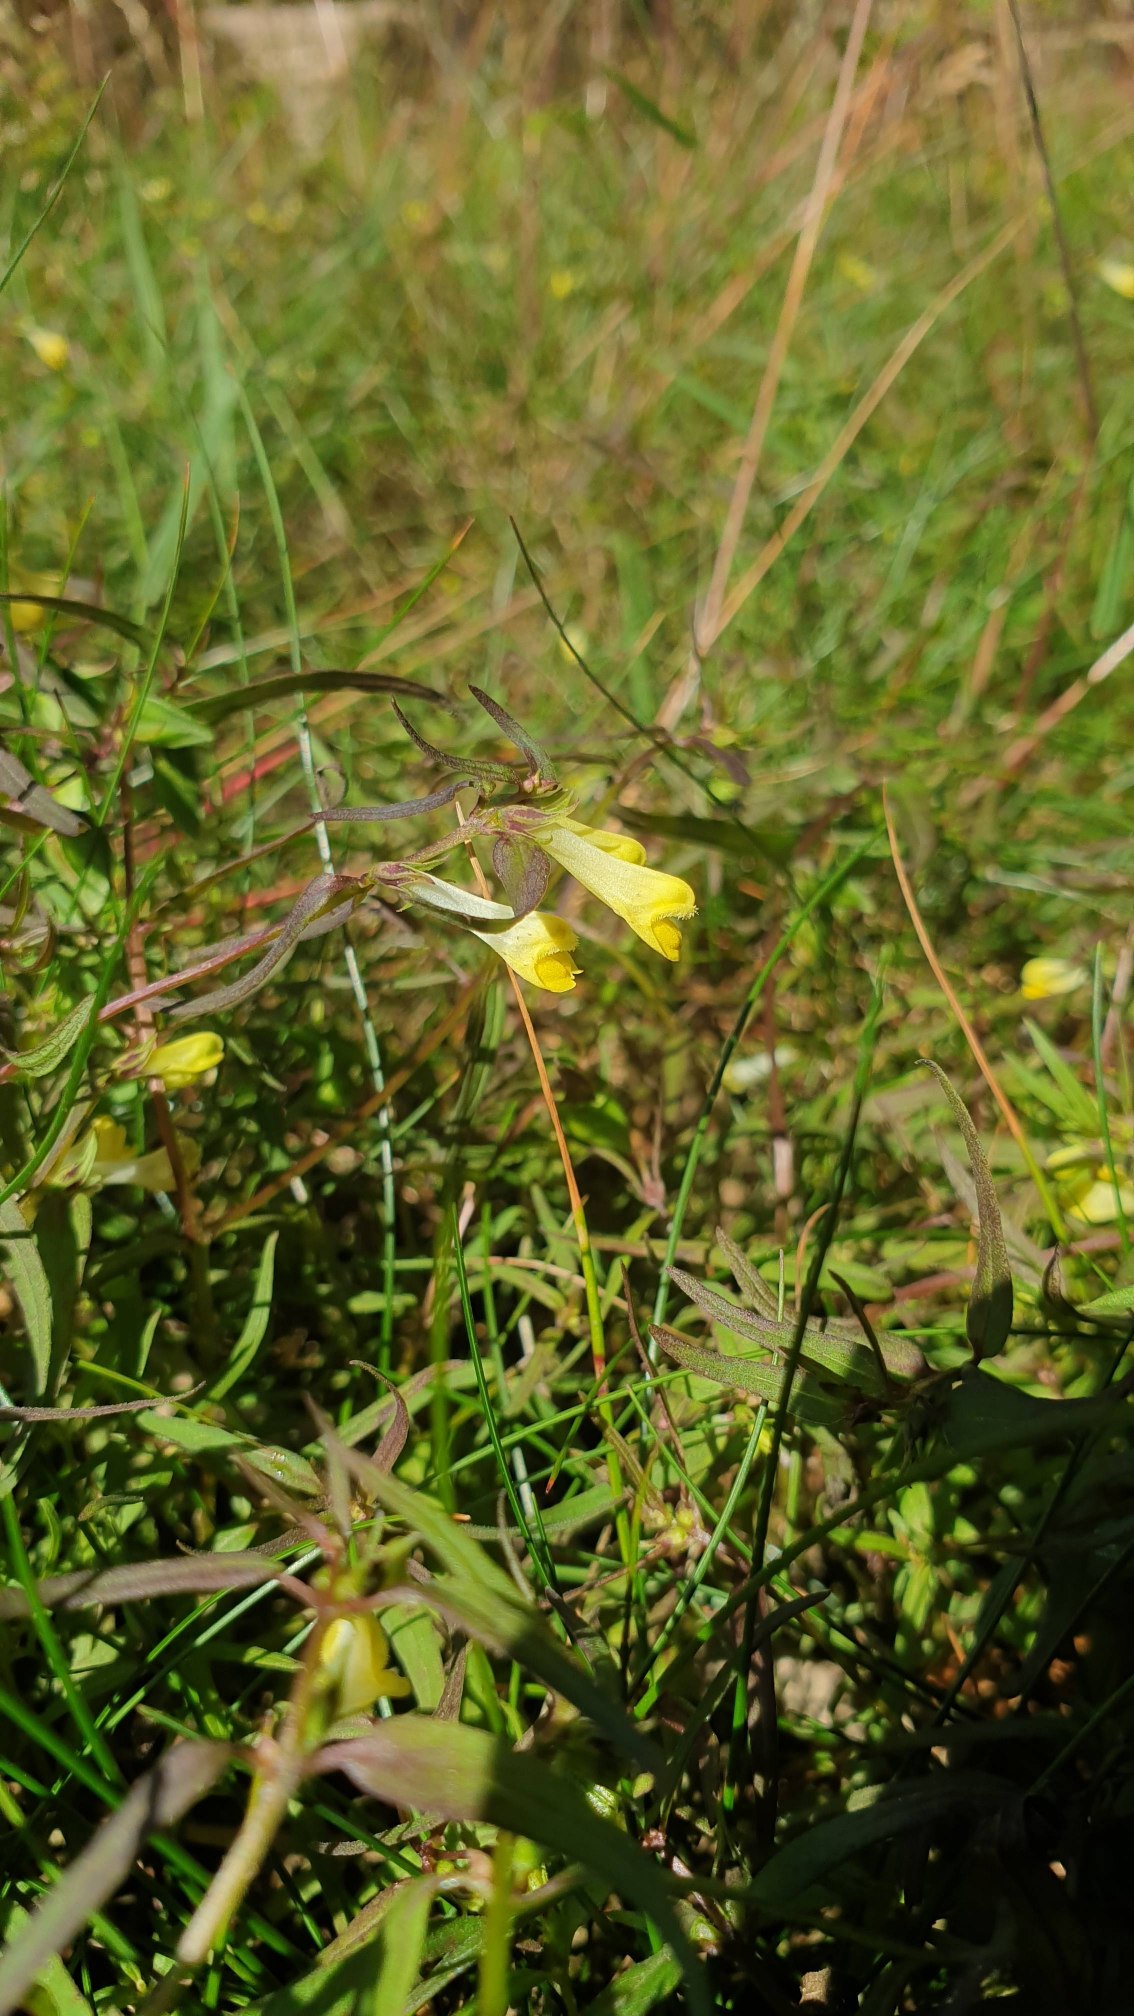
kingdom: Plantae
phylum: Tracheophyta
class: Magnoliopsida
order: Lamiales
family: Orobanchaceae
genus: Melampyrum
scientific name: Melampyrum pratense
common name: Almindelig kohvede
